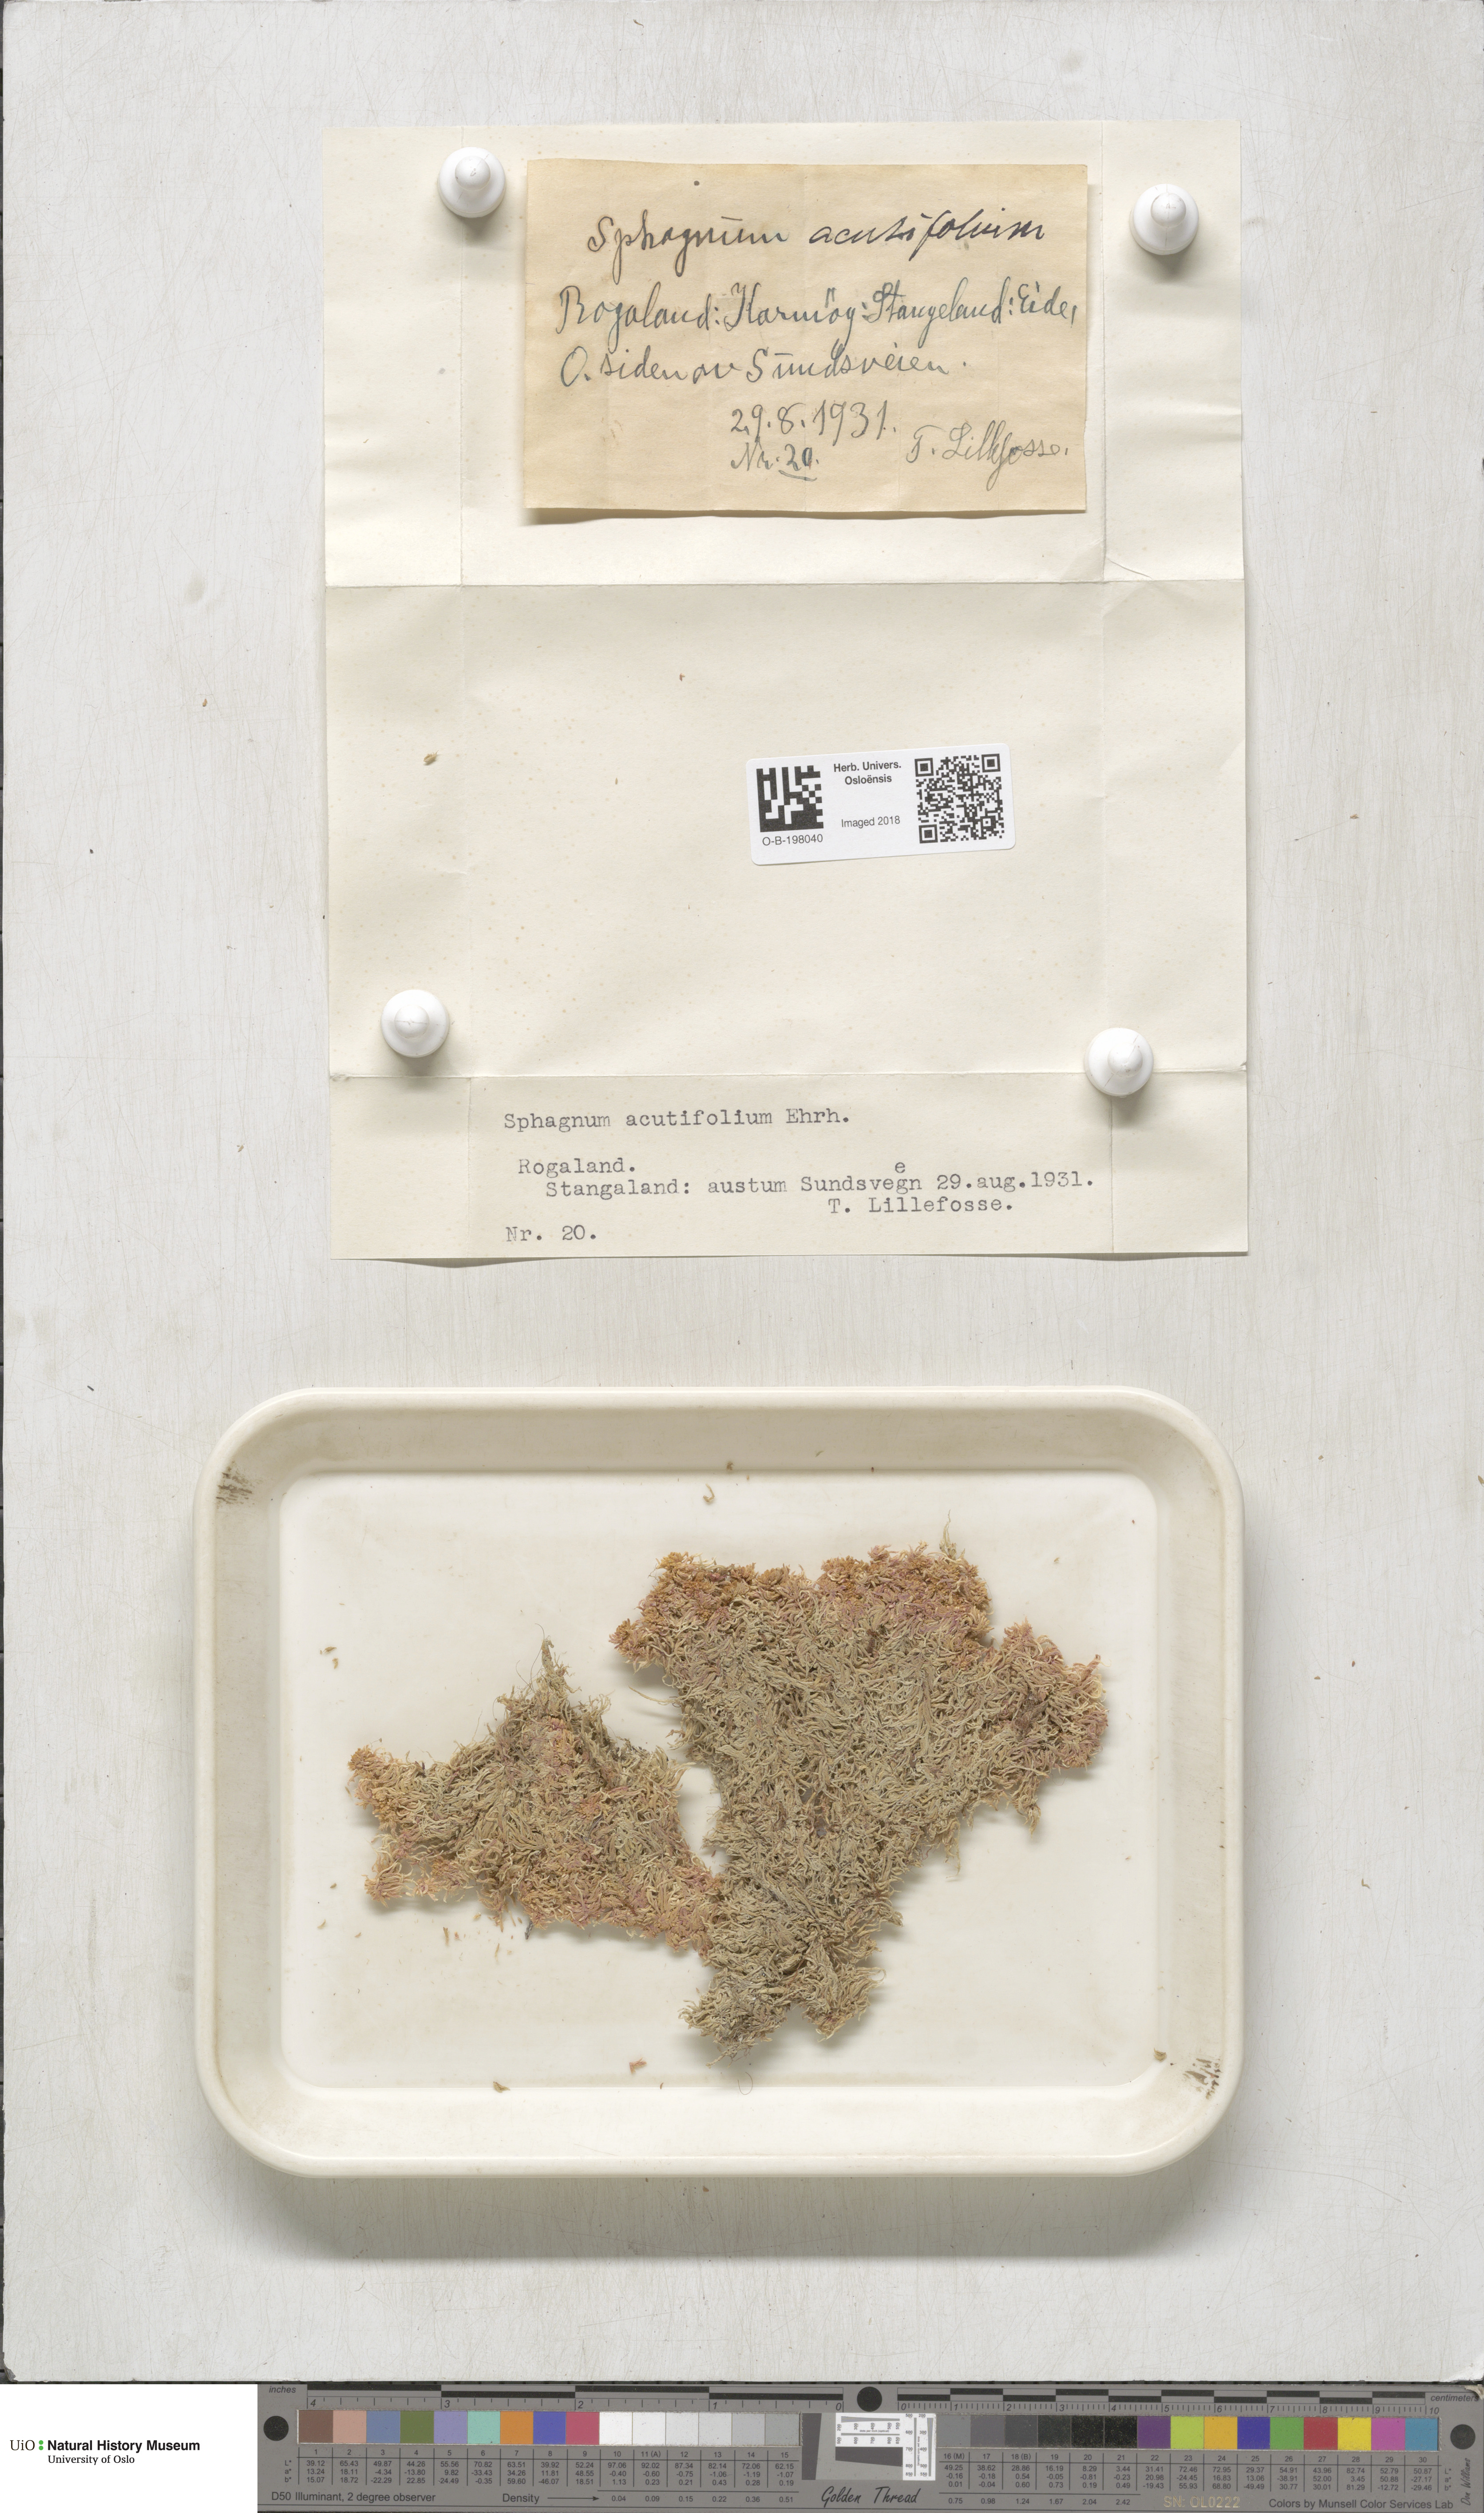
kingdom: Plantae
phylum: Bryophyta
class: Sphagnopsida
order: Sphagnales
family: Sphagnaceae
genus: Sphagnum
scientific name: Sphagnum capillifolium
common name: Small red peat moss
